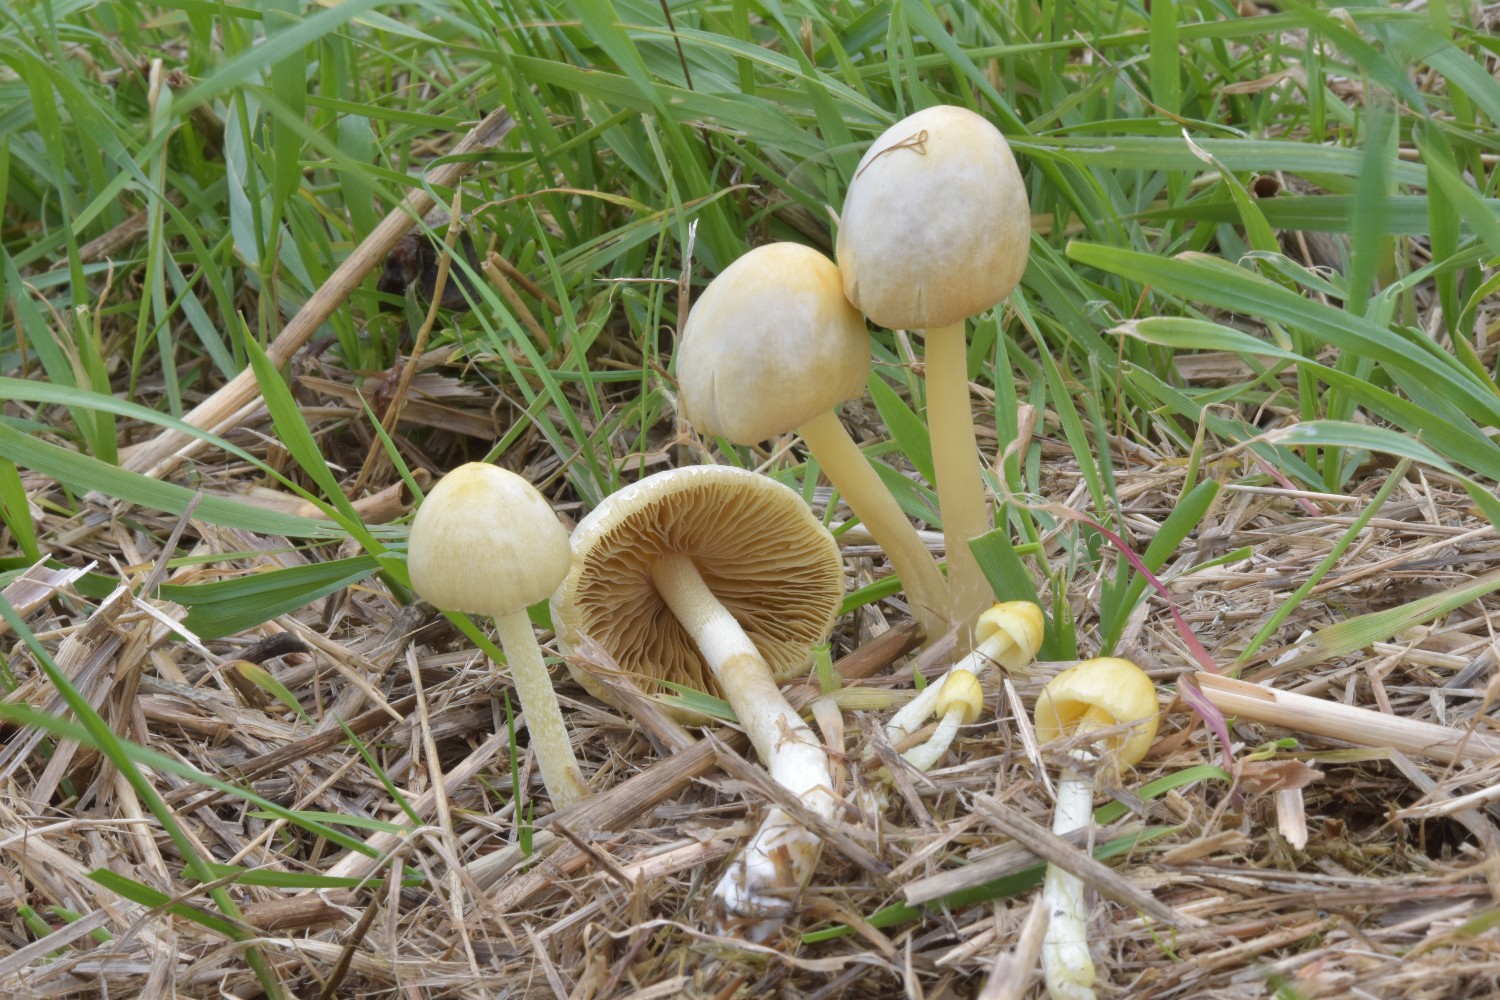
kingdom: Fungi
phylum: Basidiomycota
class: Agaricomycetes
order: Agaricales
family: Bolbitiaceae
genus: Bolbitius
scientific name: Bolbitius titubans
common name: almindelig gulhat
